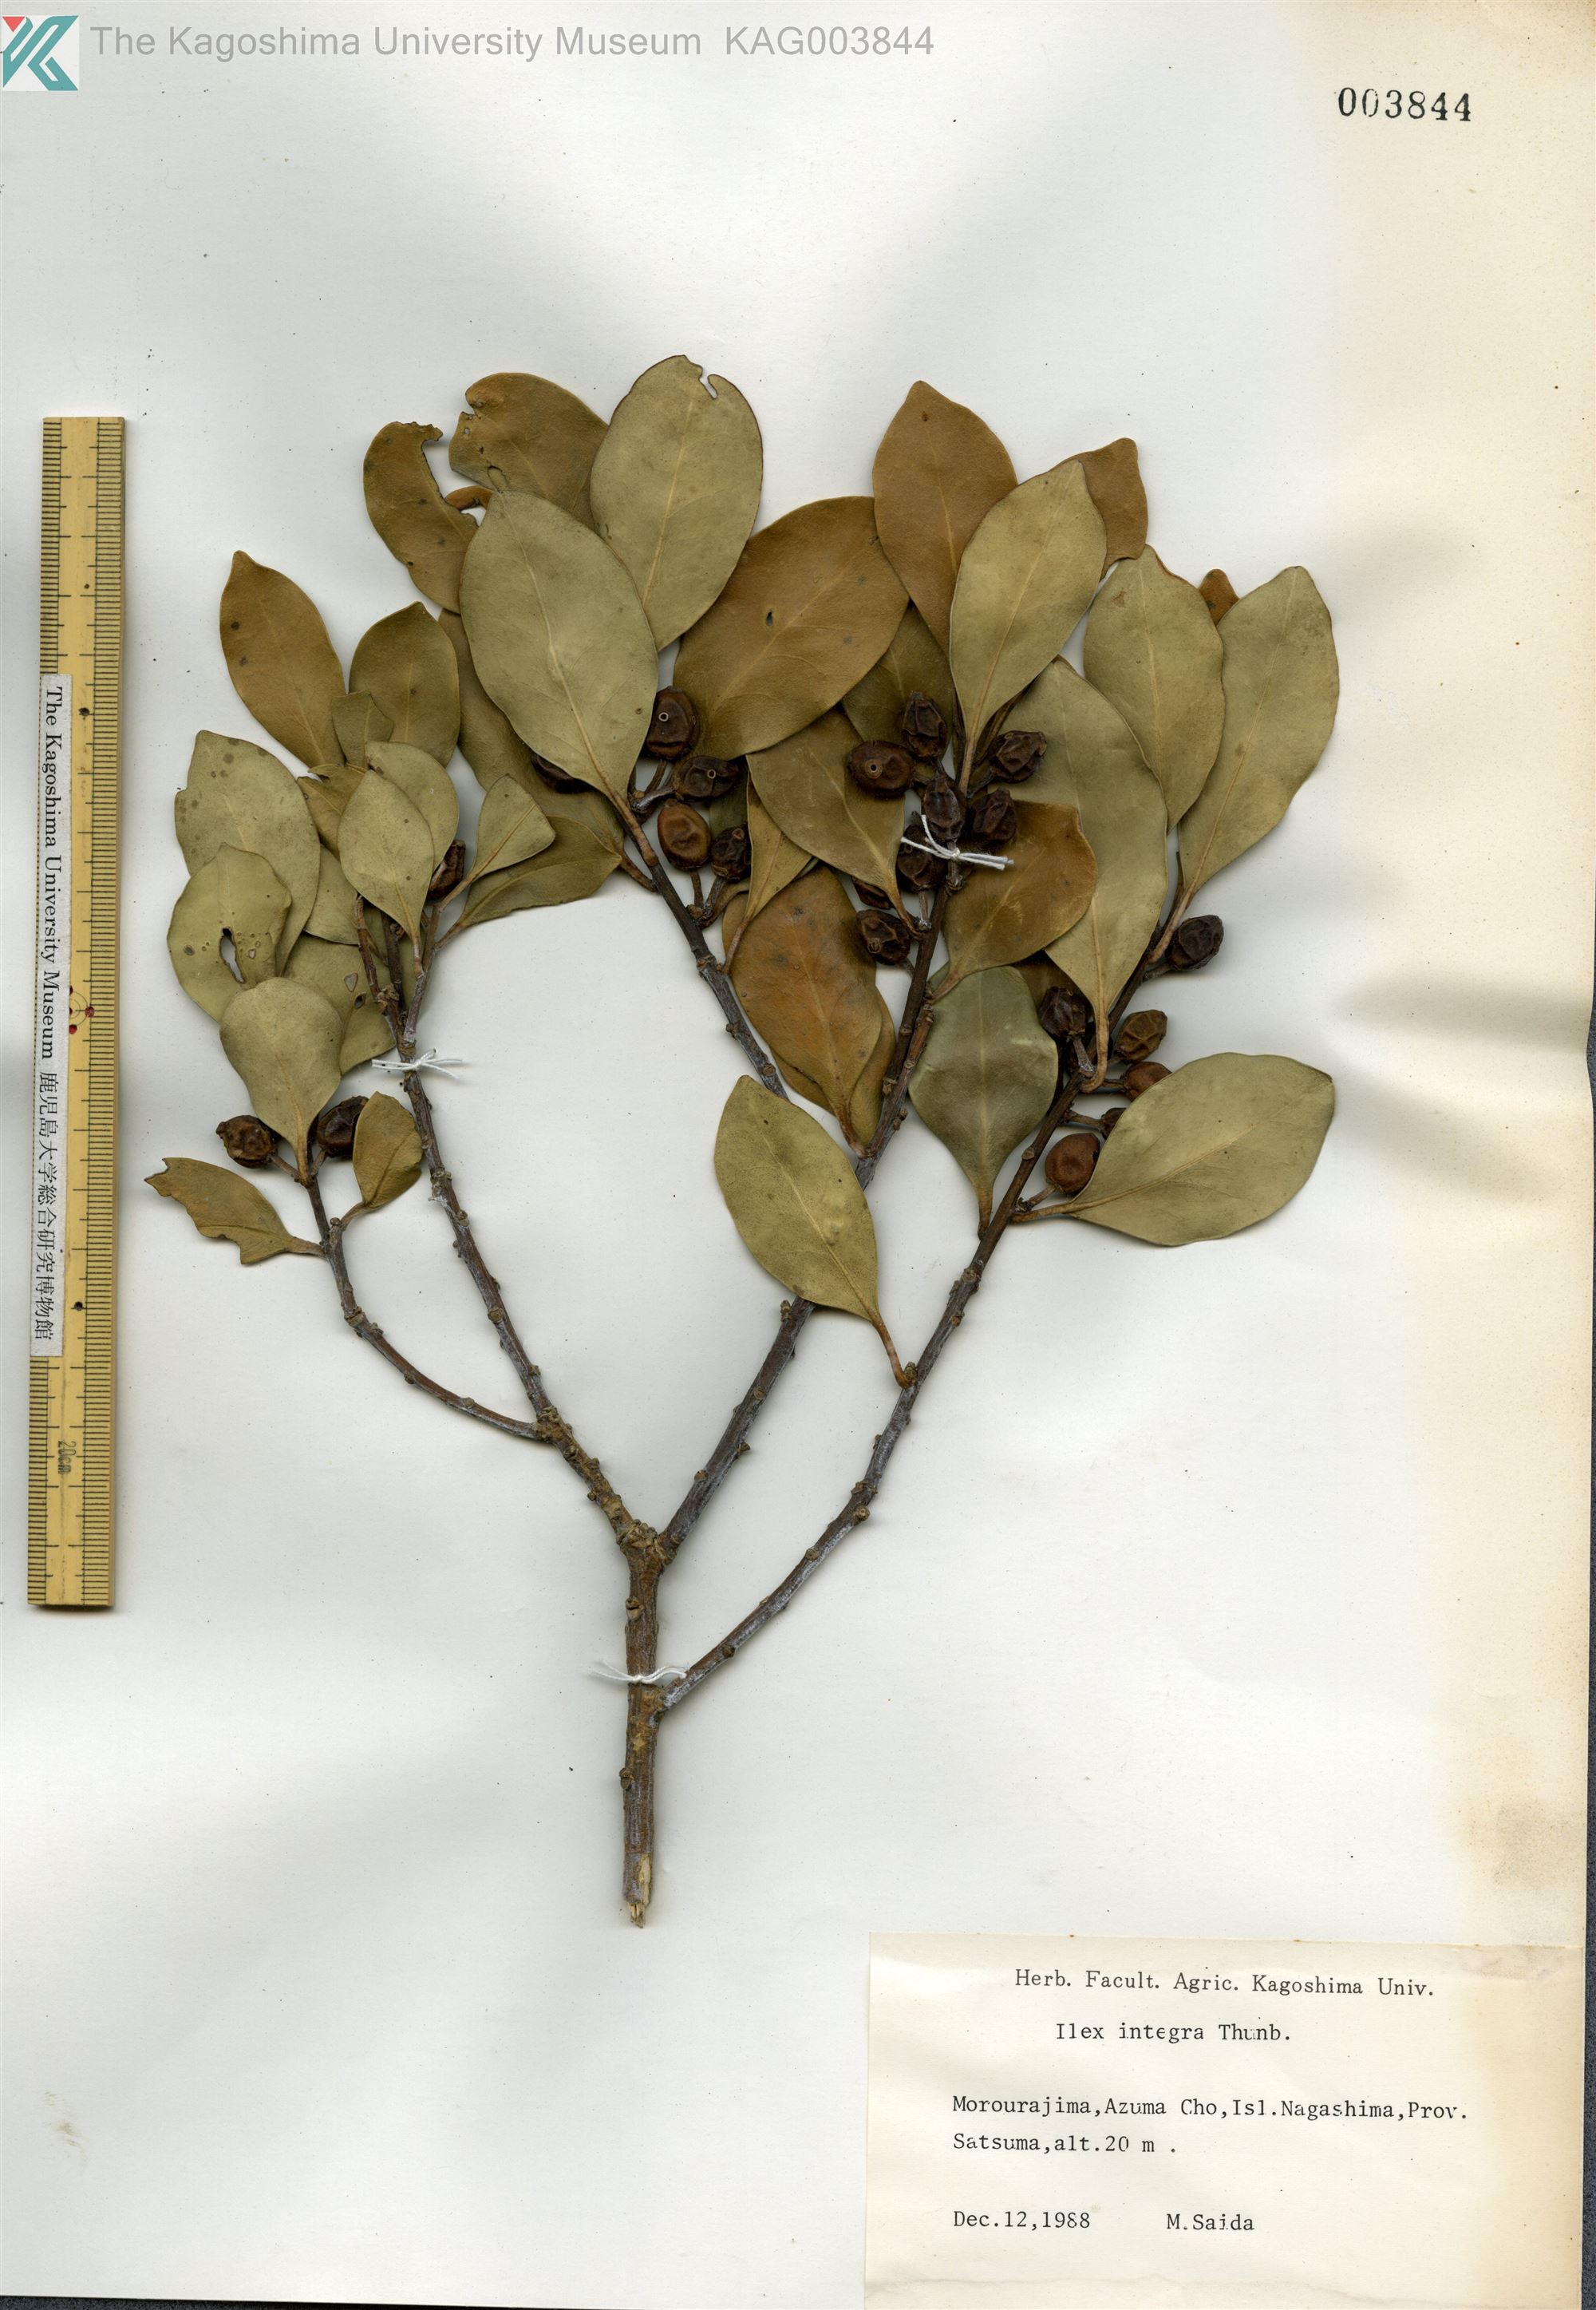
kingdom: Plantae
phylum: Tracheophyta
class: Magnoliopsida
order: Aquifoliales
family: Aquifoliaceae
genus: Ilex
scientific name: Ilex integra
